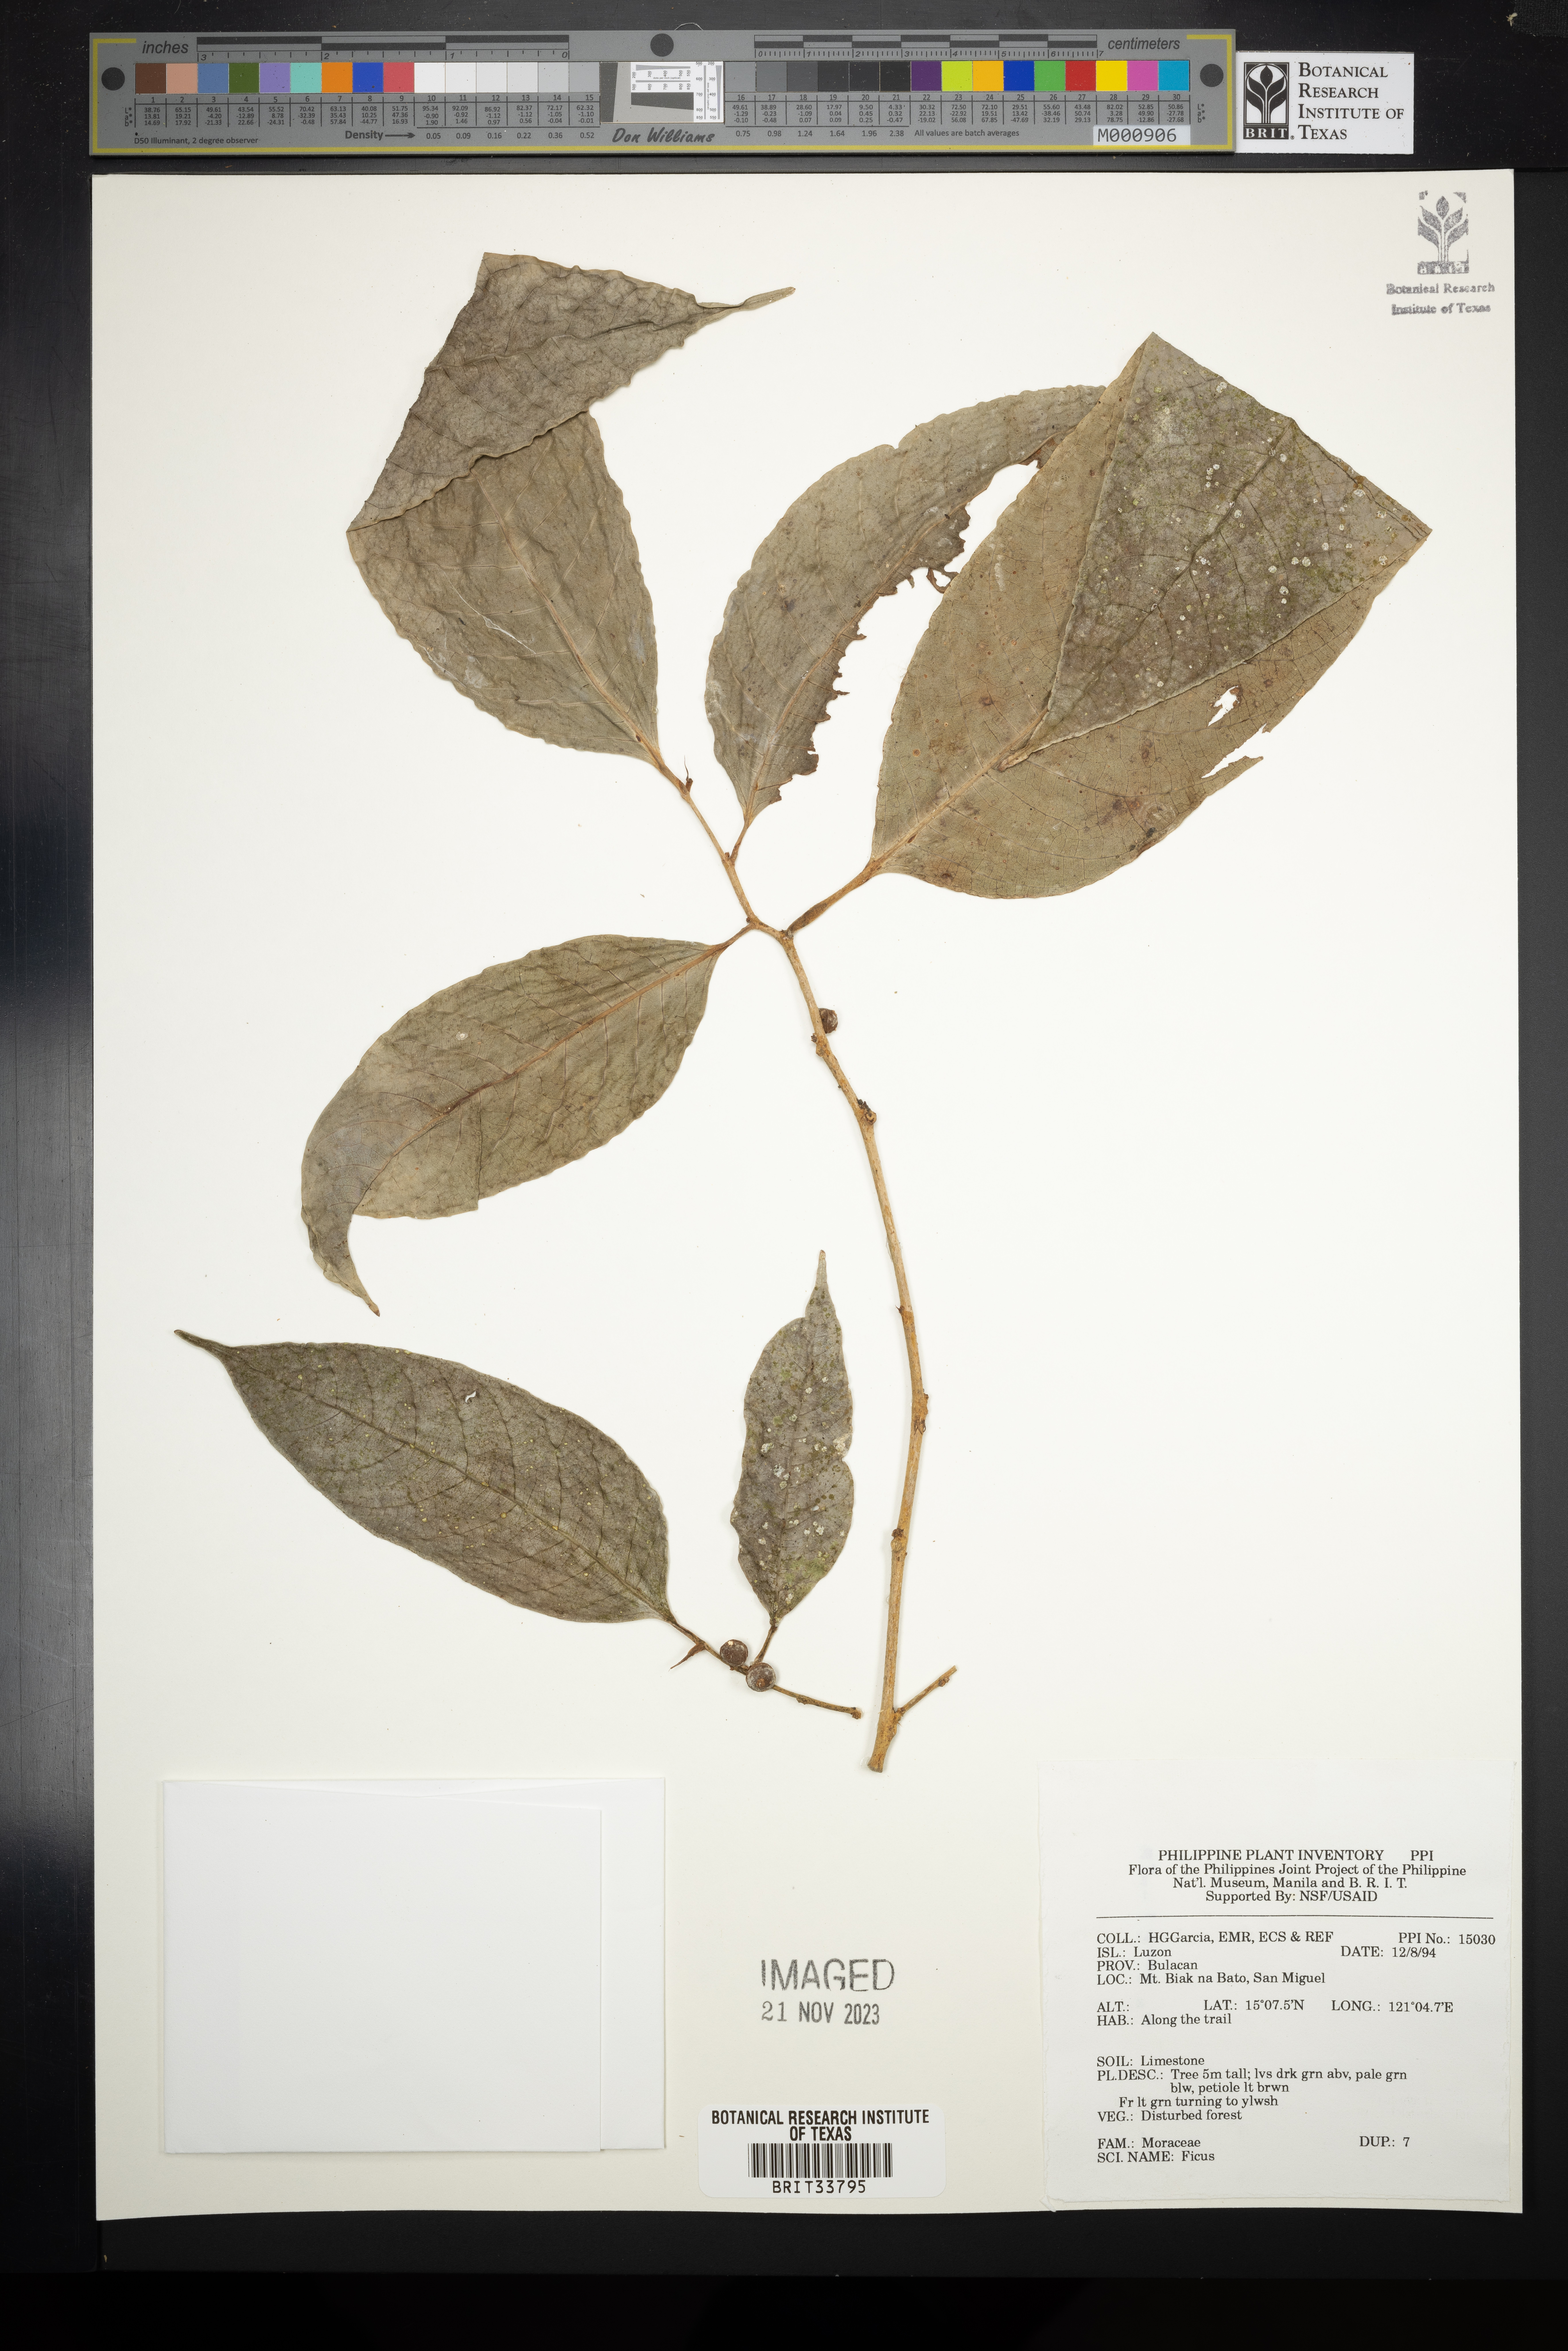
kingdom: Plantae
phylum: Tracheophyta
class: Magnoliopsida
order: Rosales
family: Moraceae
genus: Ficus
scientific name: Ficus
